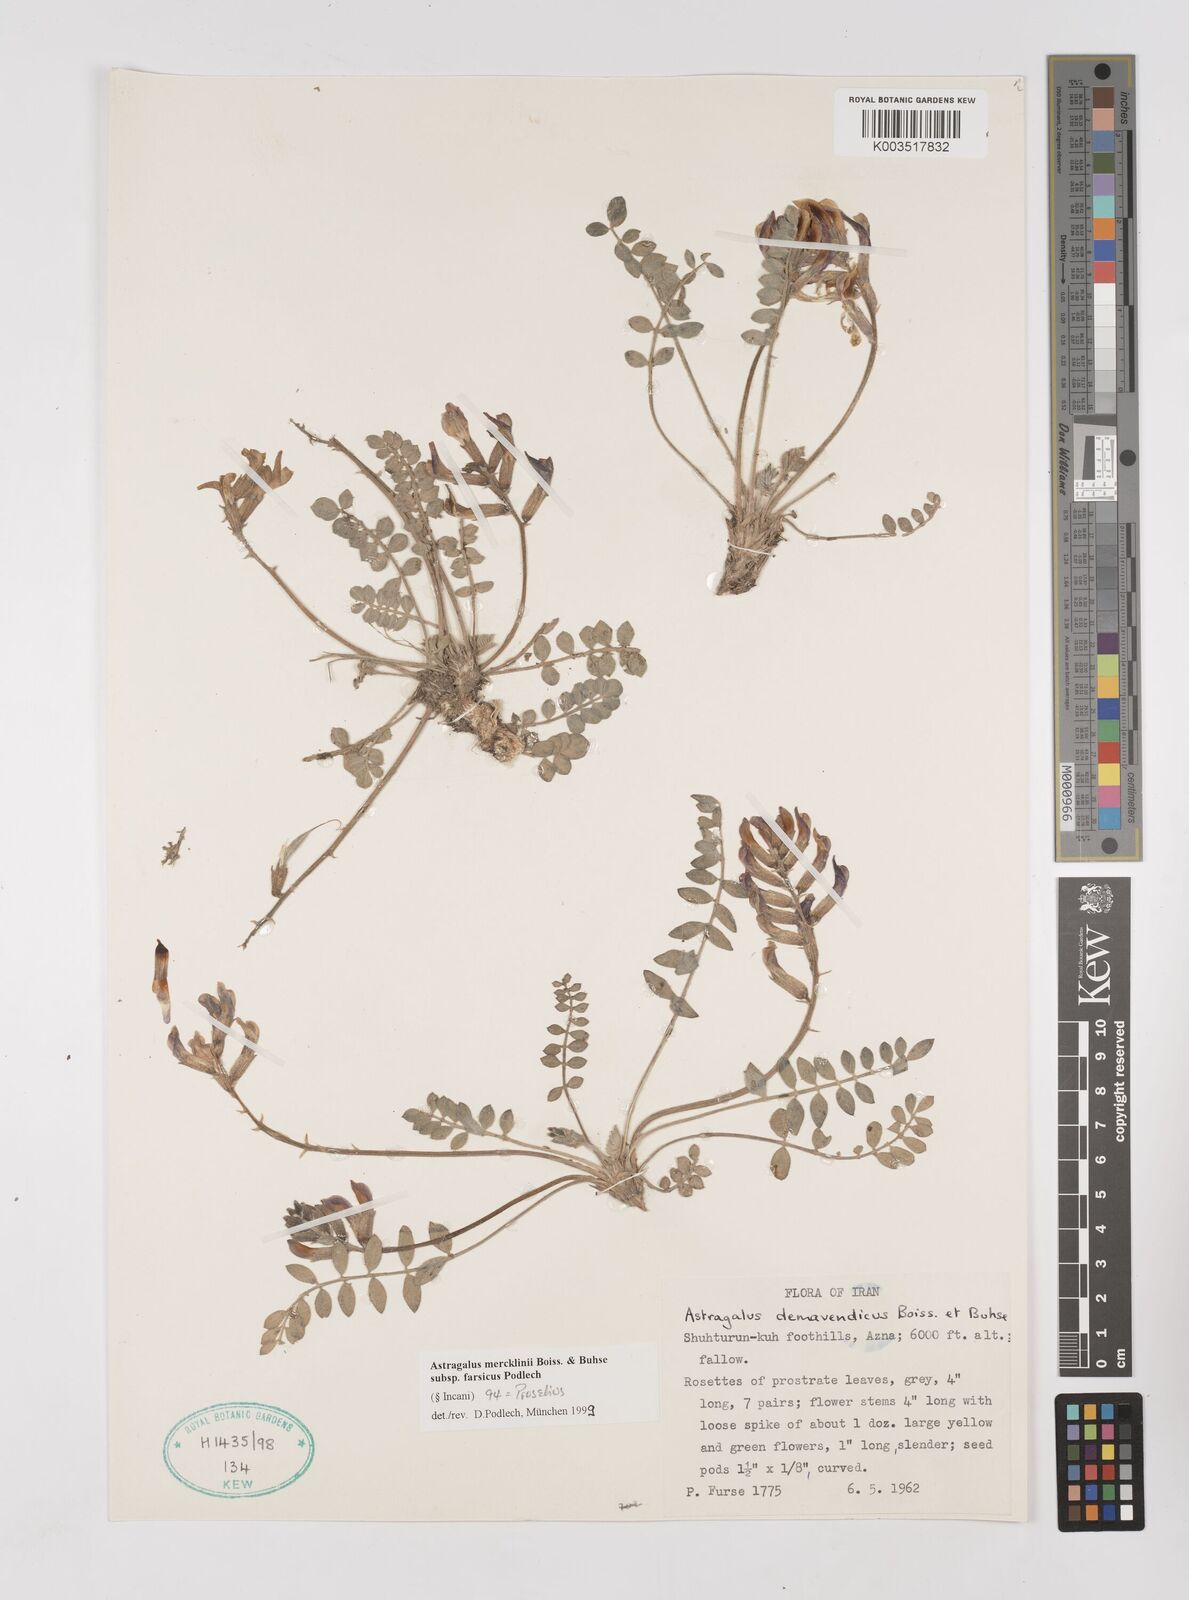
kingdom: Plantae
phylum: Tracheophyta
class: Magnoliopsida
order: Fabales
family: Fabaceae
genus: Astragalus
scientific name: Astragalus mercklinii
